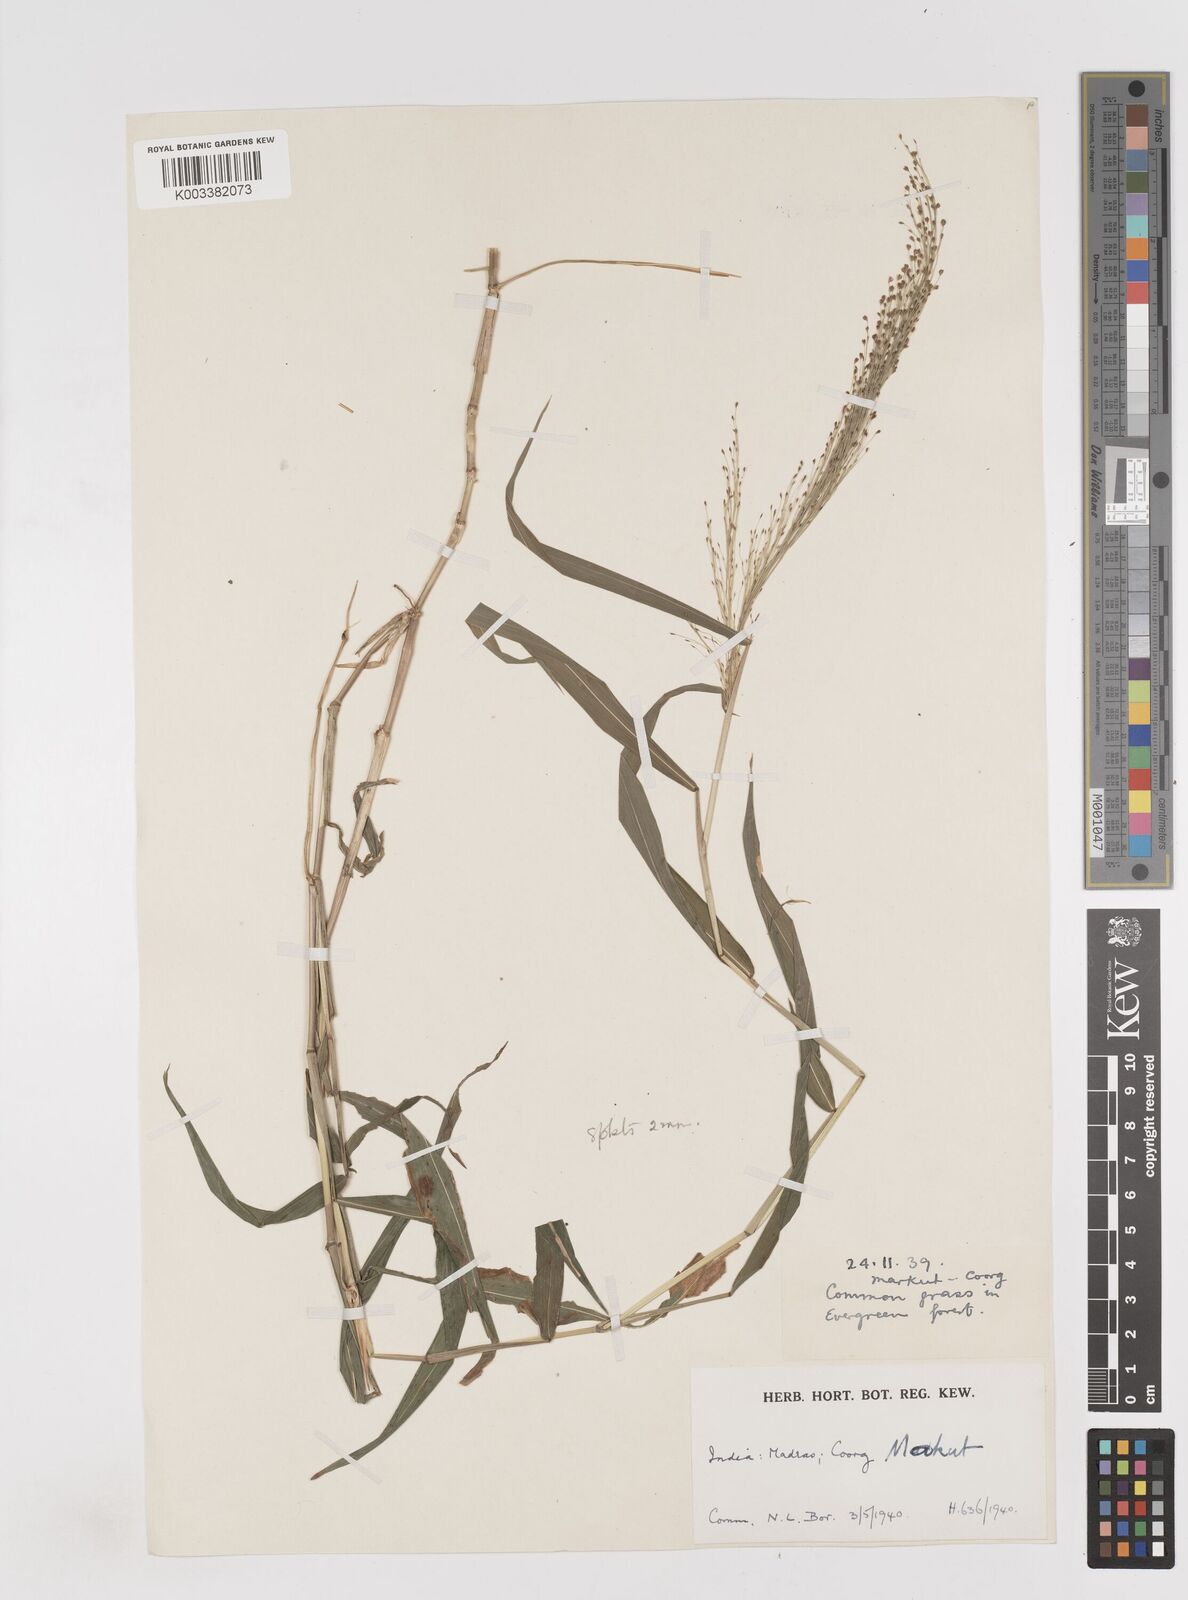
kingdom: Plantae
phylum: Tracheophyta
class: Liliopsida
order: Poales
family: Poaceae
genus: Cyrtococcum
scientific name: Cyrtococcum longipes
